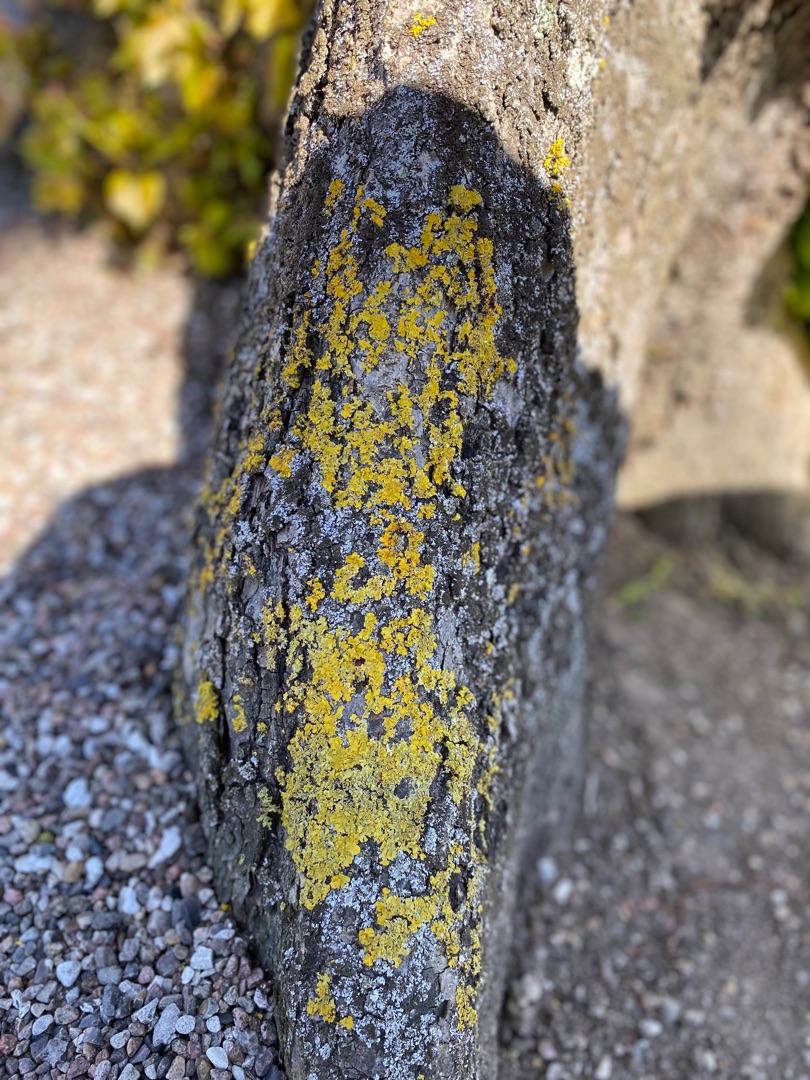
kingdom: Fungi
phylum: Ascomycota
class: Lecanoromycetes
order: Teloschistales
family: Teloschistaceae
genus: Xanthoria
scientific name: Xanthoria parietina
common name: Almindelig væggelav
